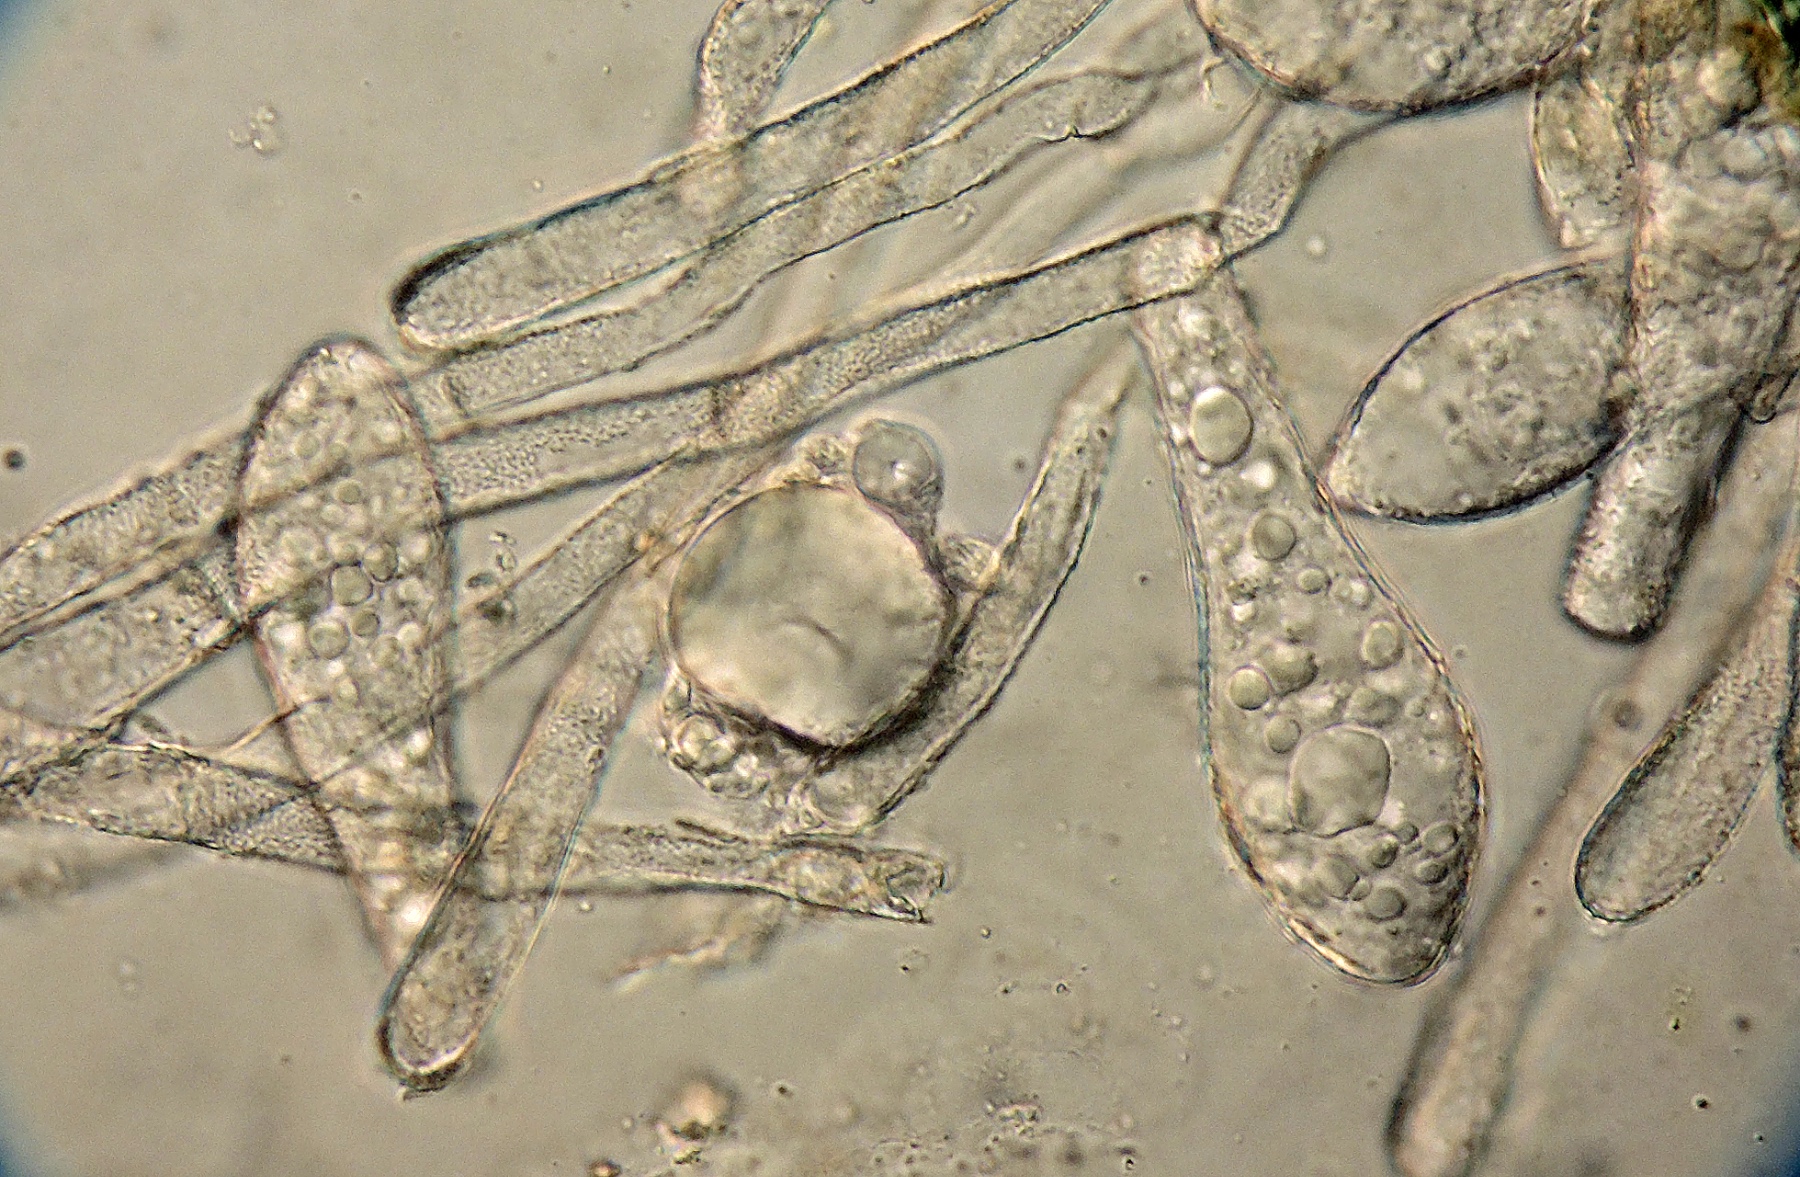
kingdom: Fungi
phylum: Ascomycota
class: Leotiomycetes
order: Helotiales
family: Erysiphaceae
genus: Phyllactinia
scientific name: Phyllactinia fraxini
